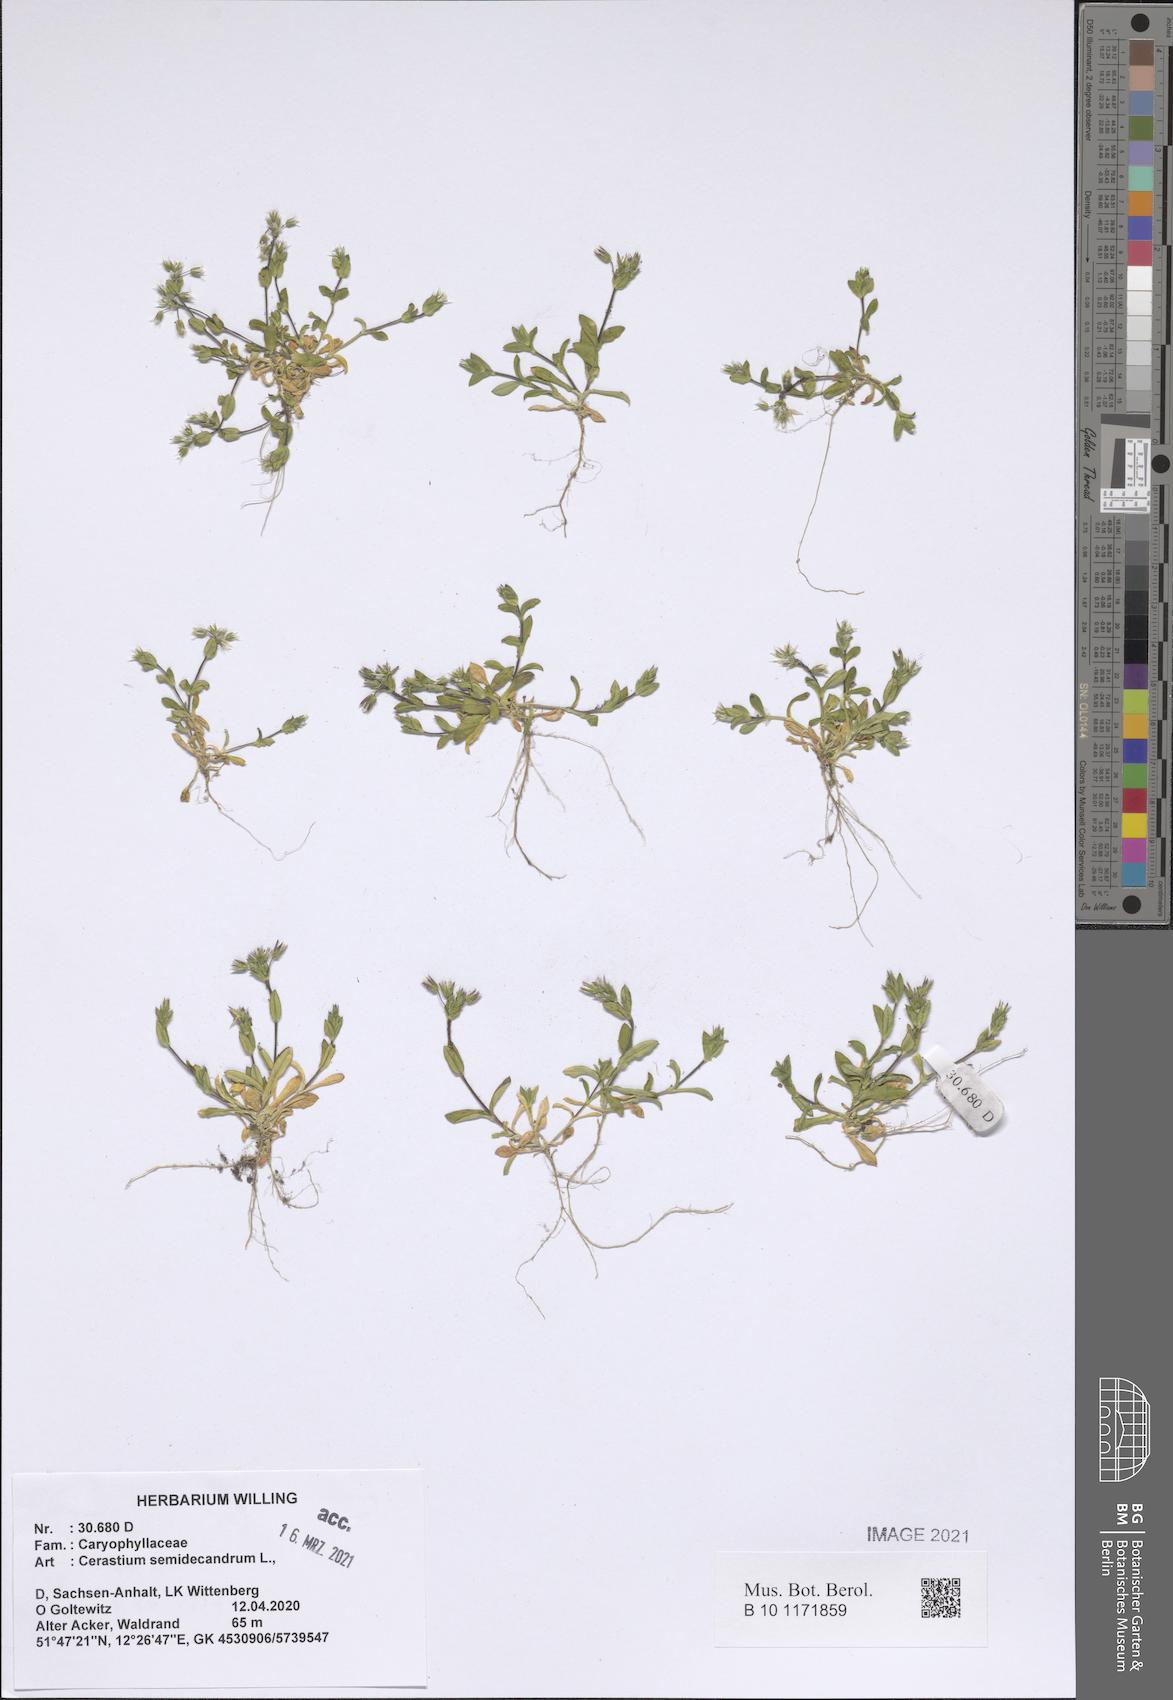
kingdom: Plantae
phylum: Tracheophyta
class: Magnoliopsida
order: Caryophyllales
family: Caryophyllaceae
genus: Cerastium
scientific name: Cerastium semidecandrum
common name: Little mouse-ear
